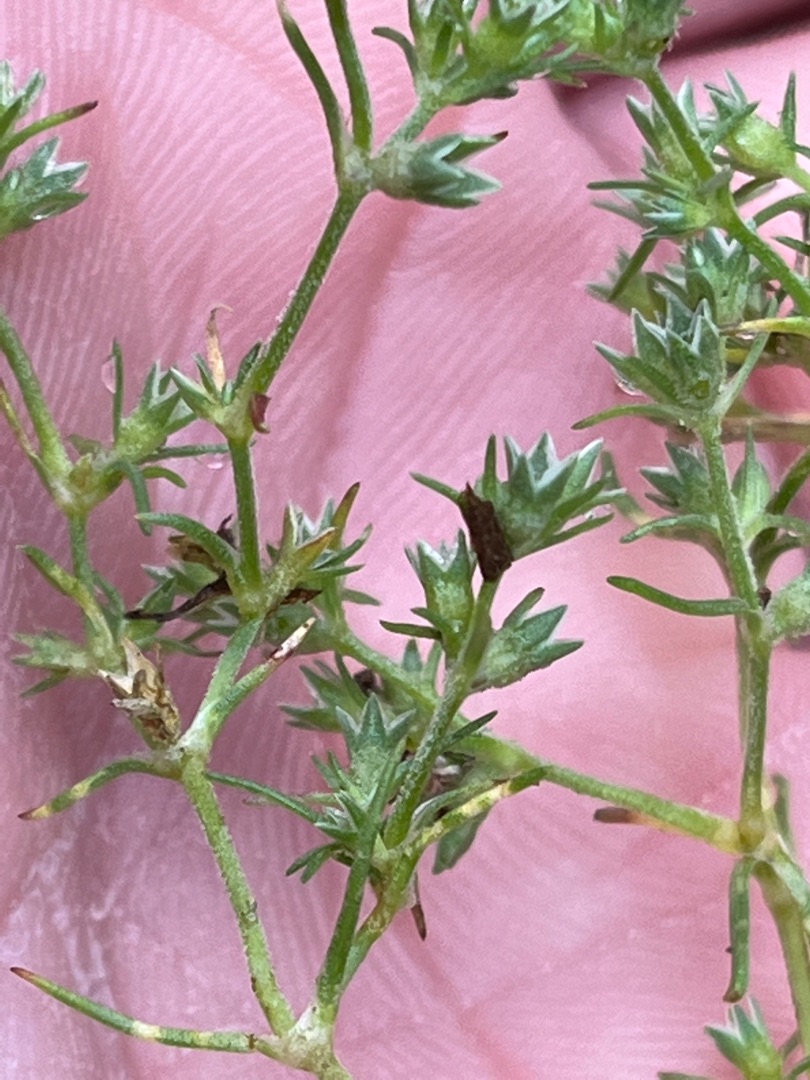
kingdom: Plantae
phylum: Tracheophyta
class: Magnoliopsida
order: Caryophyllales
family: Caryophyllaceae
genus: Scleranthus
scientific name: Scleranthus annuus
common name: Enårig knavel
